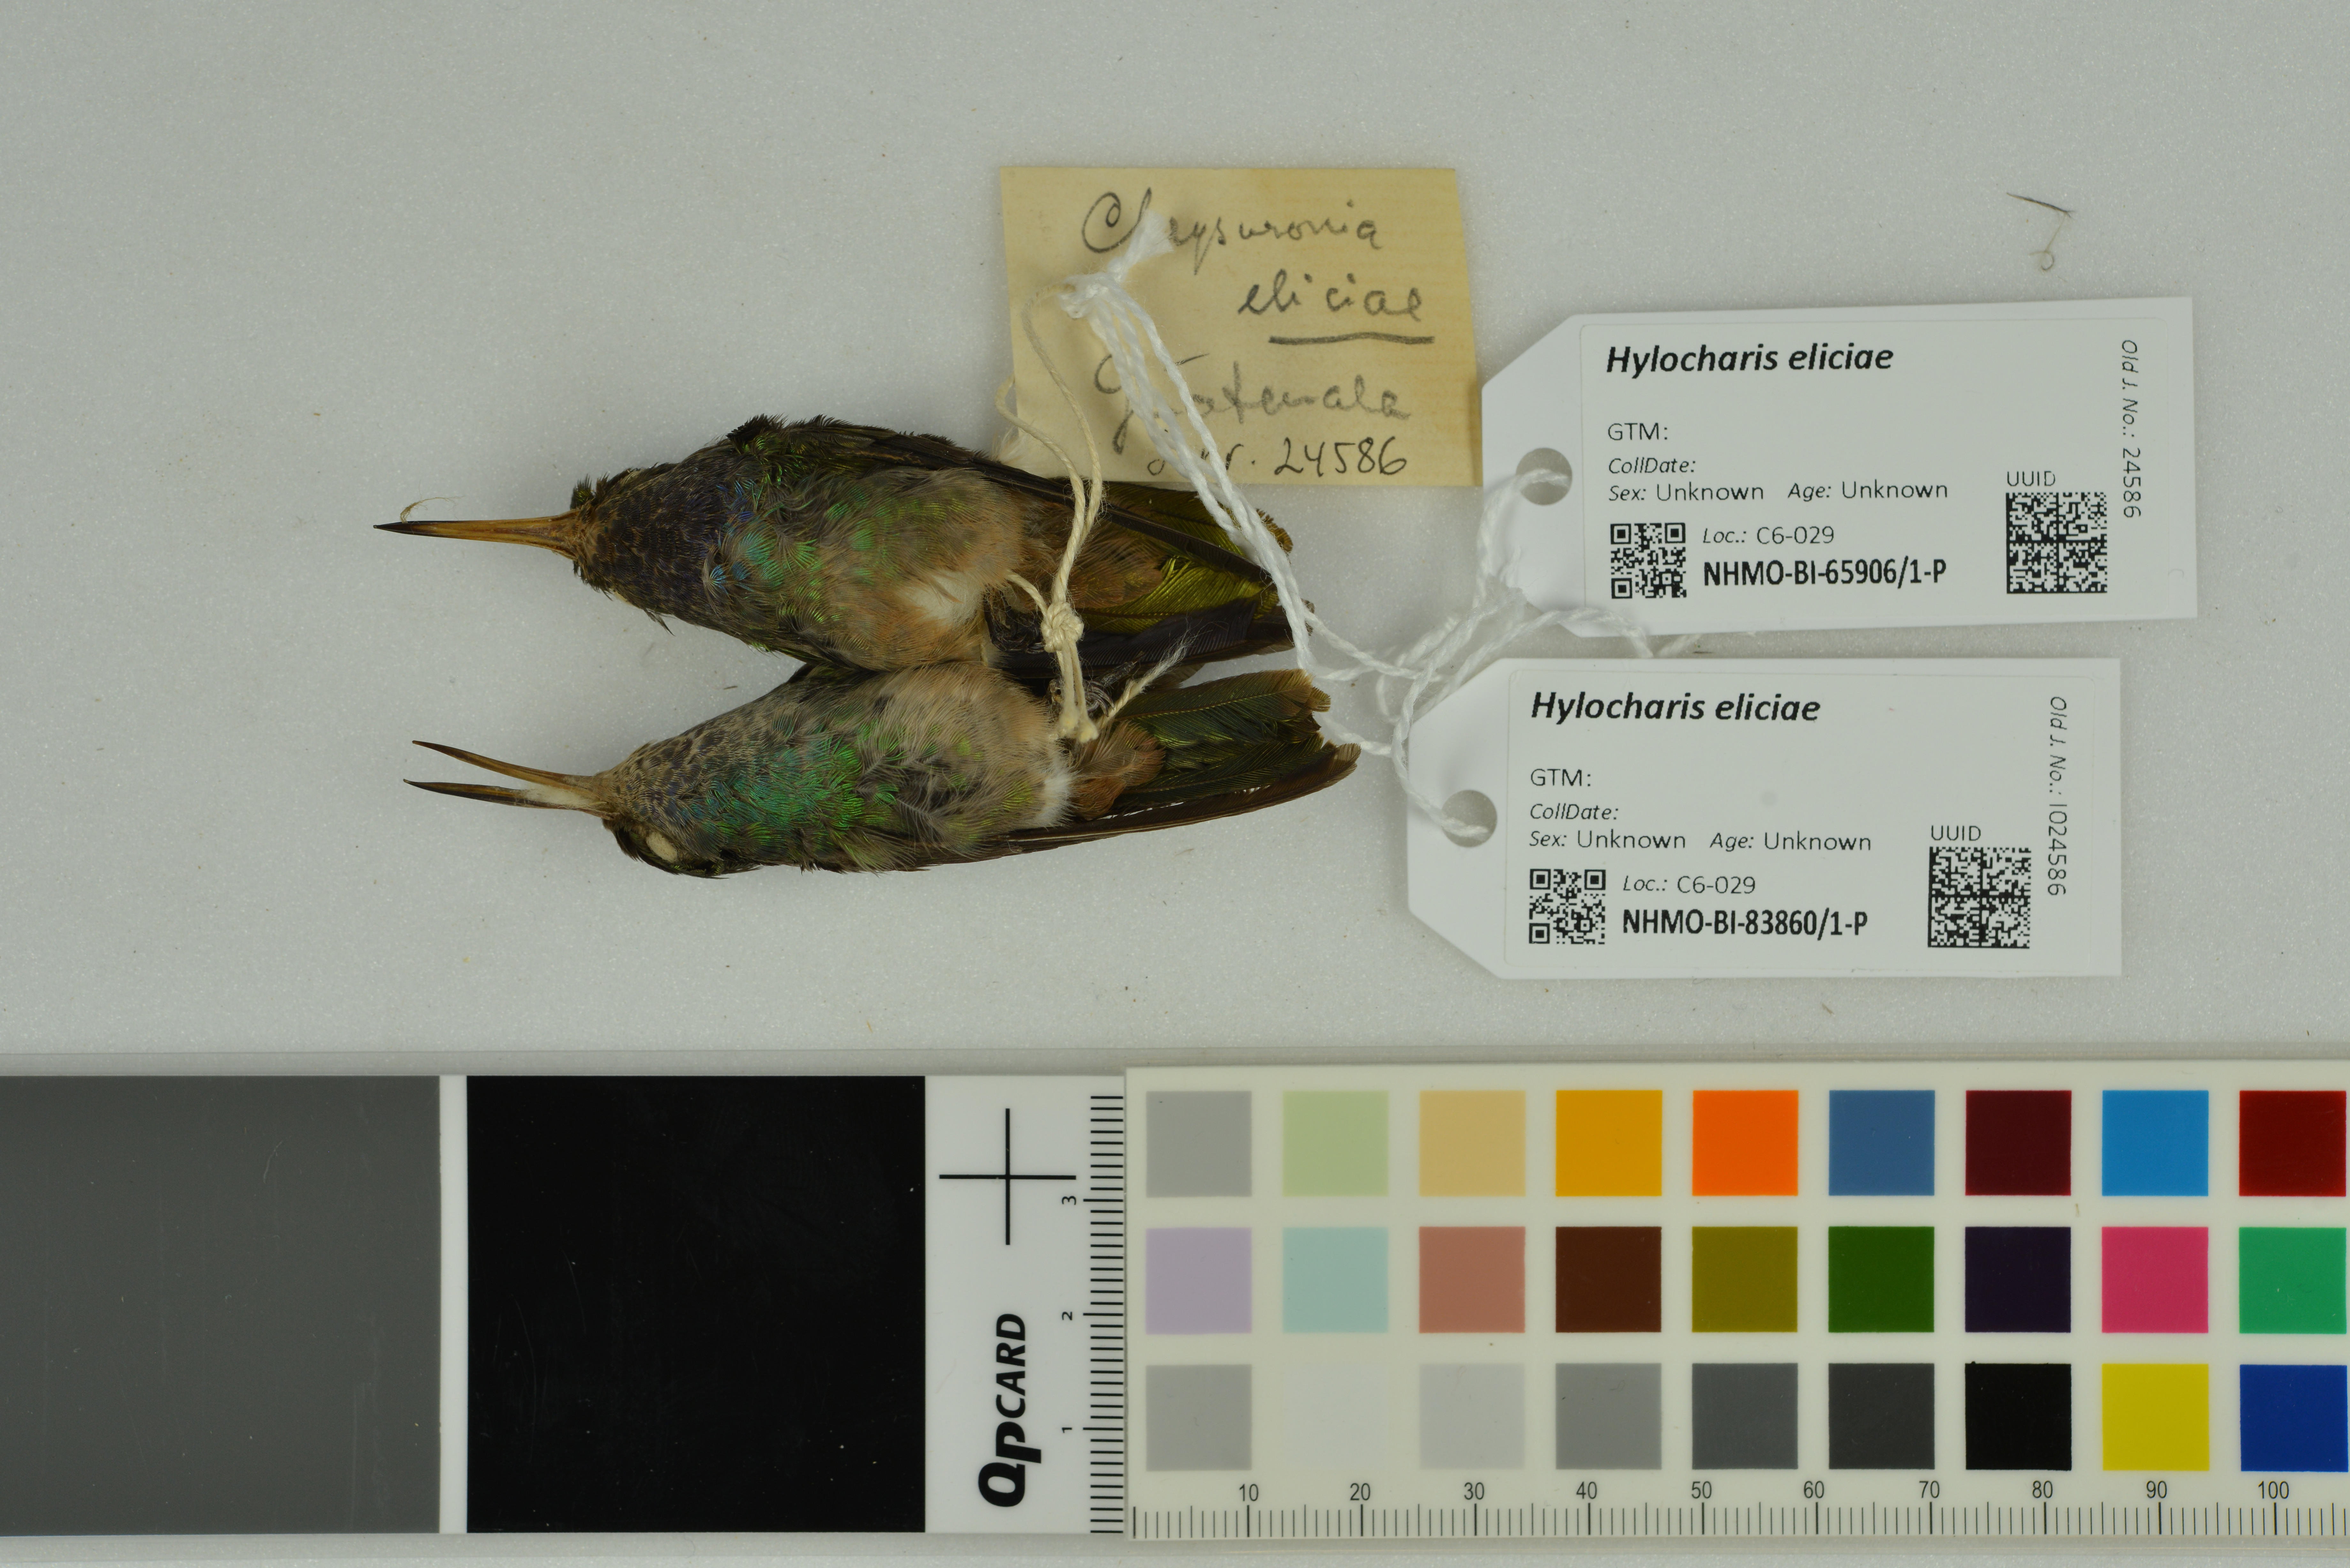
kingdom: Animalia
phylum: Chordata
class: Aves
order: Apodiformes
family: Trochilidae
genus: Chlorestes
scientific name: Chlorestes eliciae
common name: Blue-throated sapphire
